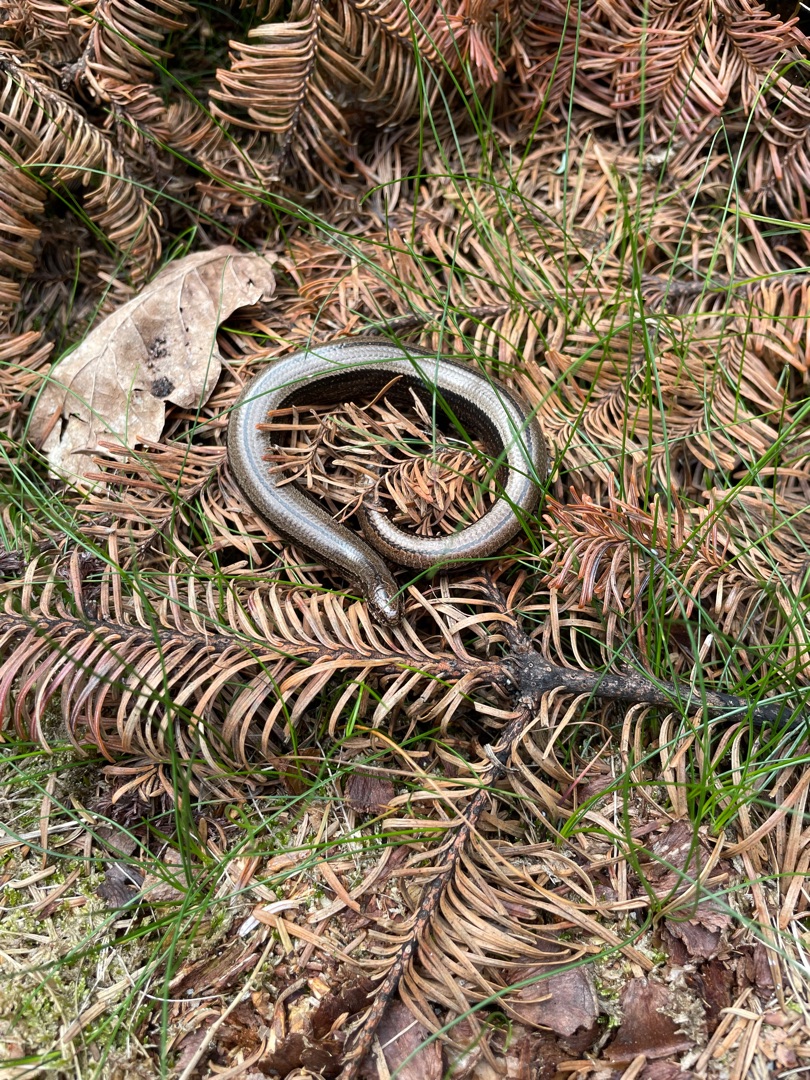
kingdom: Animalia
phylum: Chordata
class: Squamata
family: Anguidae
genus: Anguis
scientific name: Anguis fragilis
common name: Stålorm
